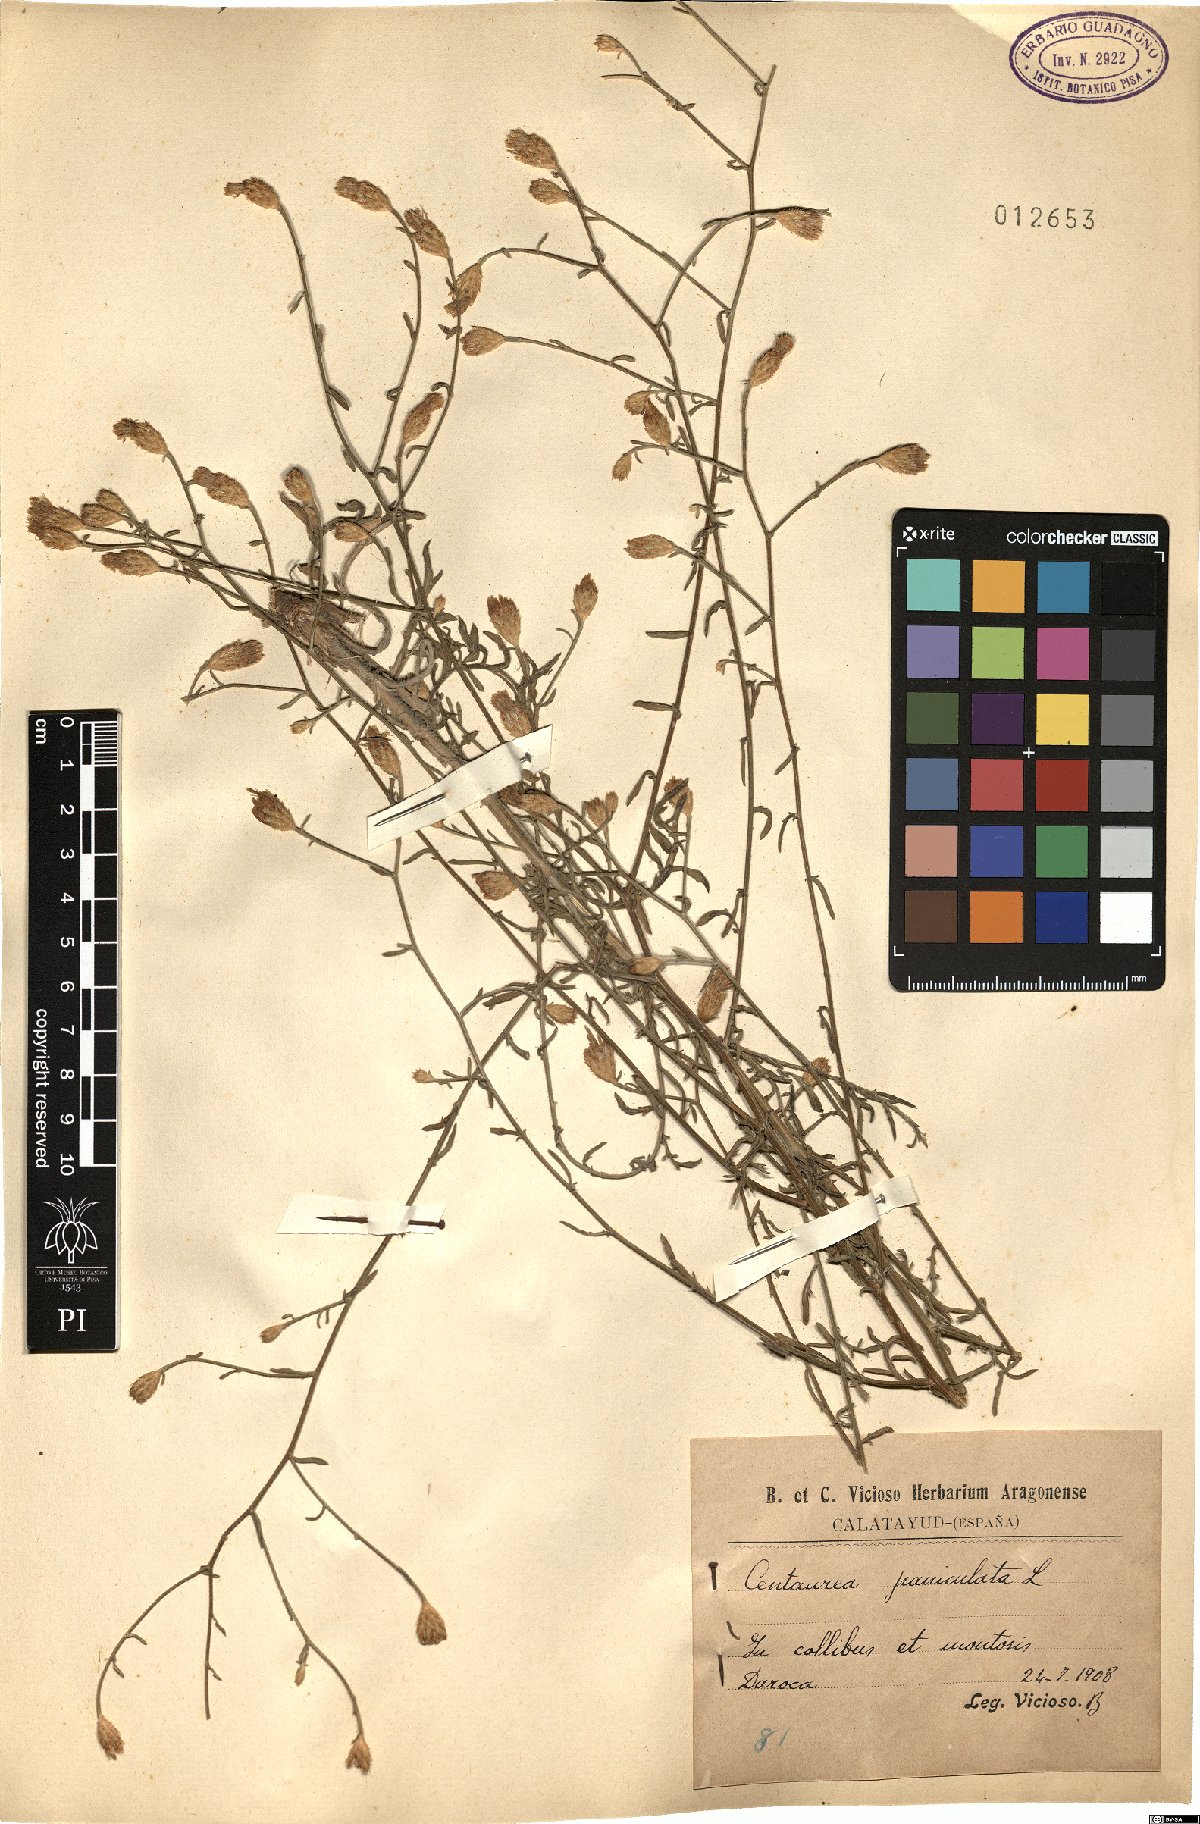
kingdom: Plantae
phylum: Tracheophyta
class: Magnoliopsida
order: Asterales
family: Asteraceae
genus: Centaurea
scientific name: Centaurea paniculata
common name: Jersey knapweed
